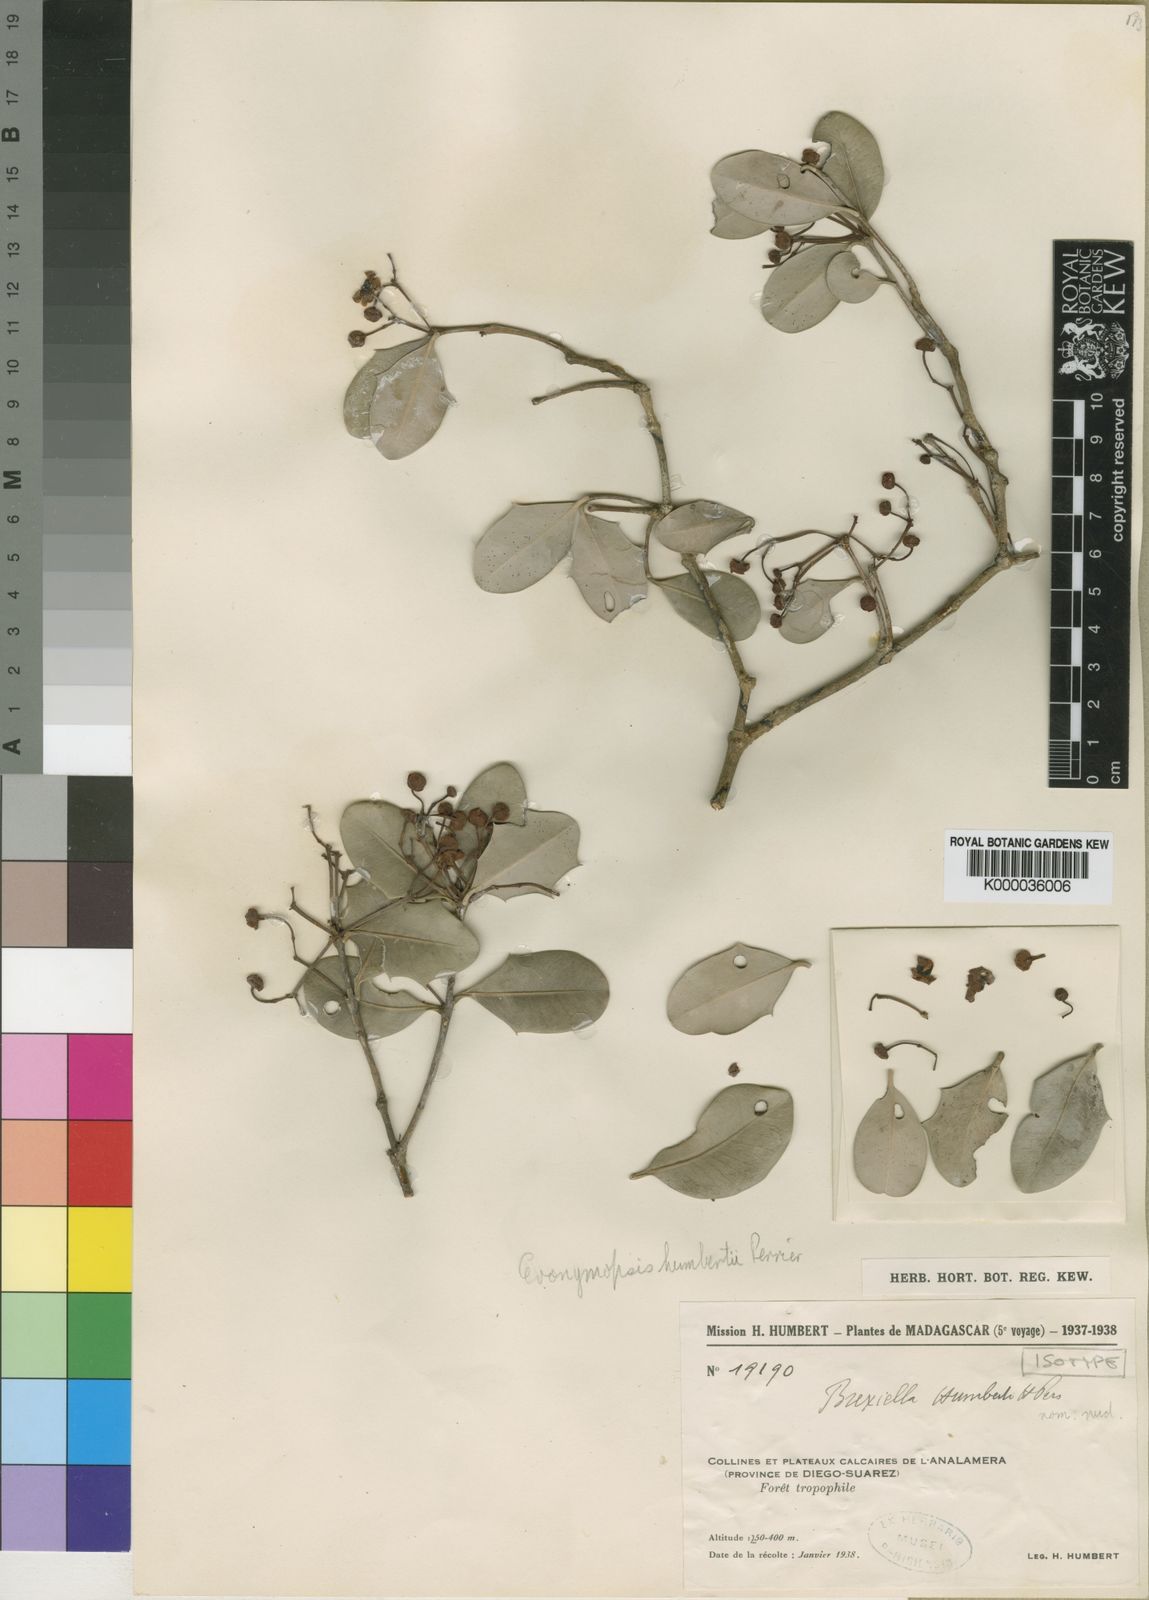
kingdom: Plantae
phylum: Tracheophyta
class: Magnoliopsida
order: Celastrales
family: Celastraceae
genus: Evonymopsis
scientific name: Evonymopsis humbertii
